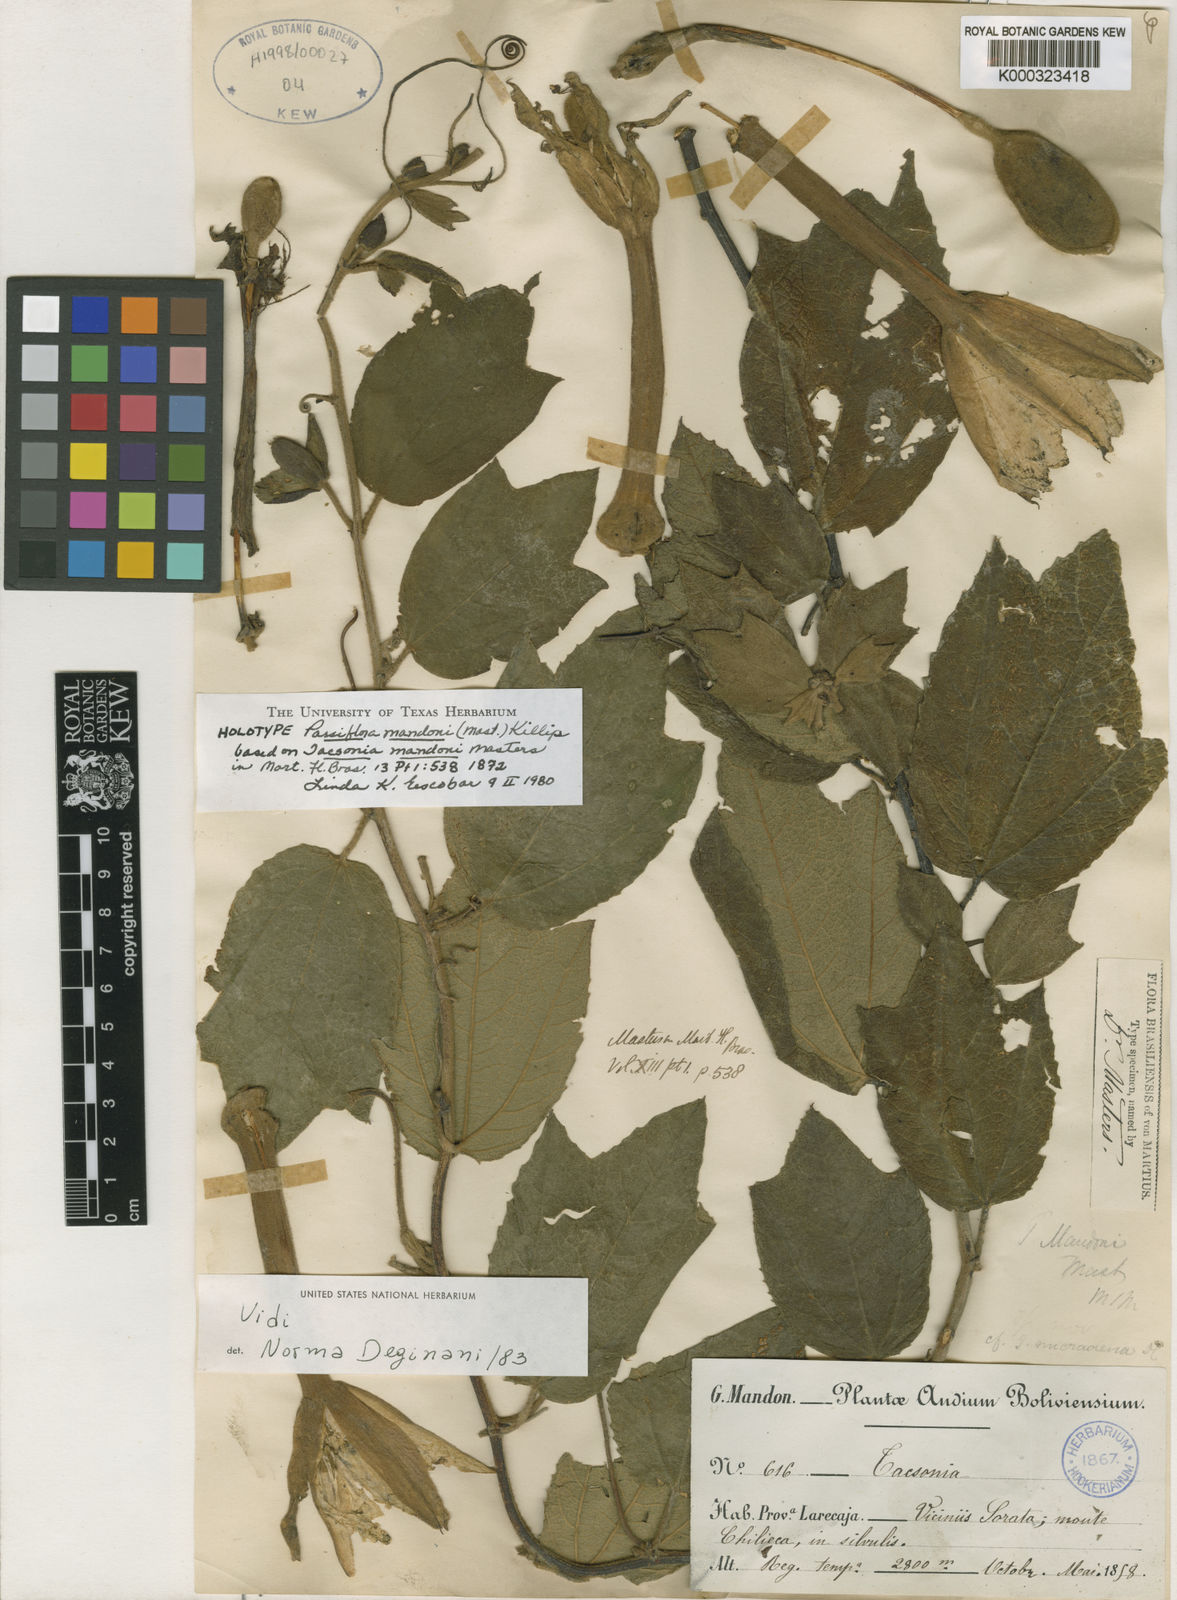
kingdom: Plantae
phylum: Tracheophyta
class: Magnoliopsida
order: Malpighiales
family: Passifloraceae
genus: Passiflora
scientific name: Passiflora mandonii
